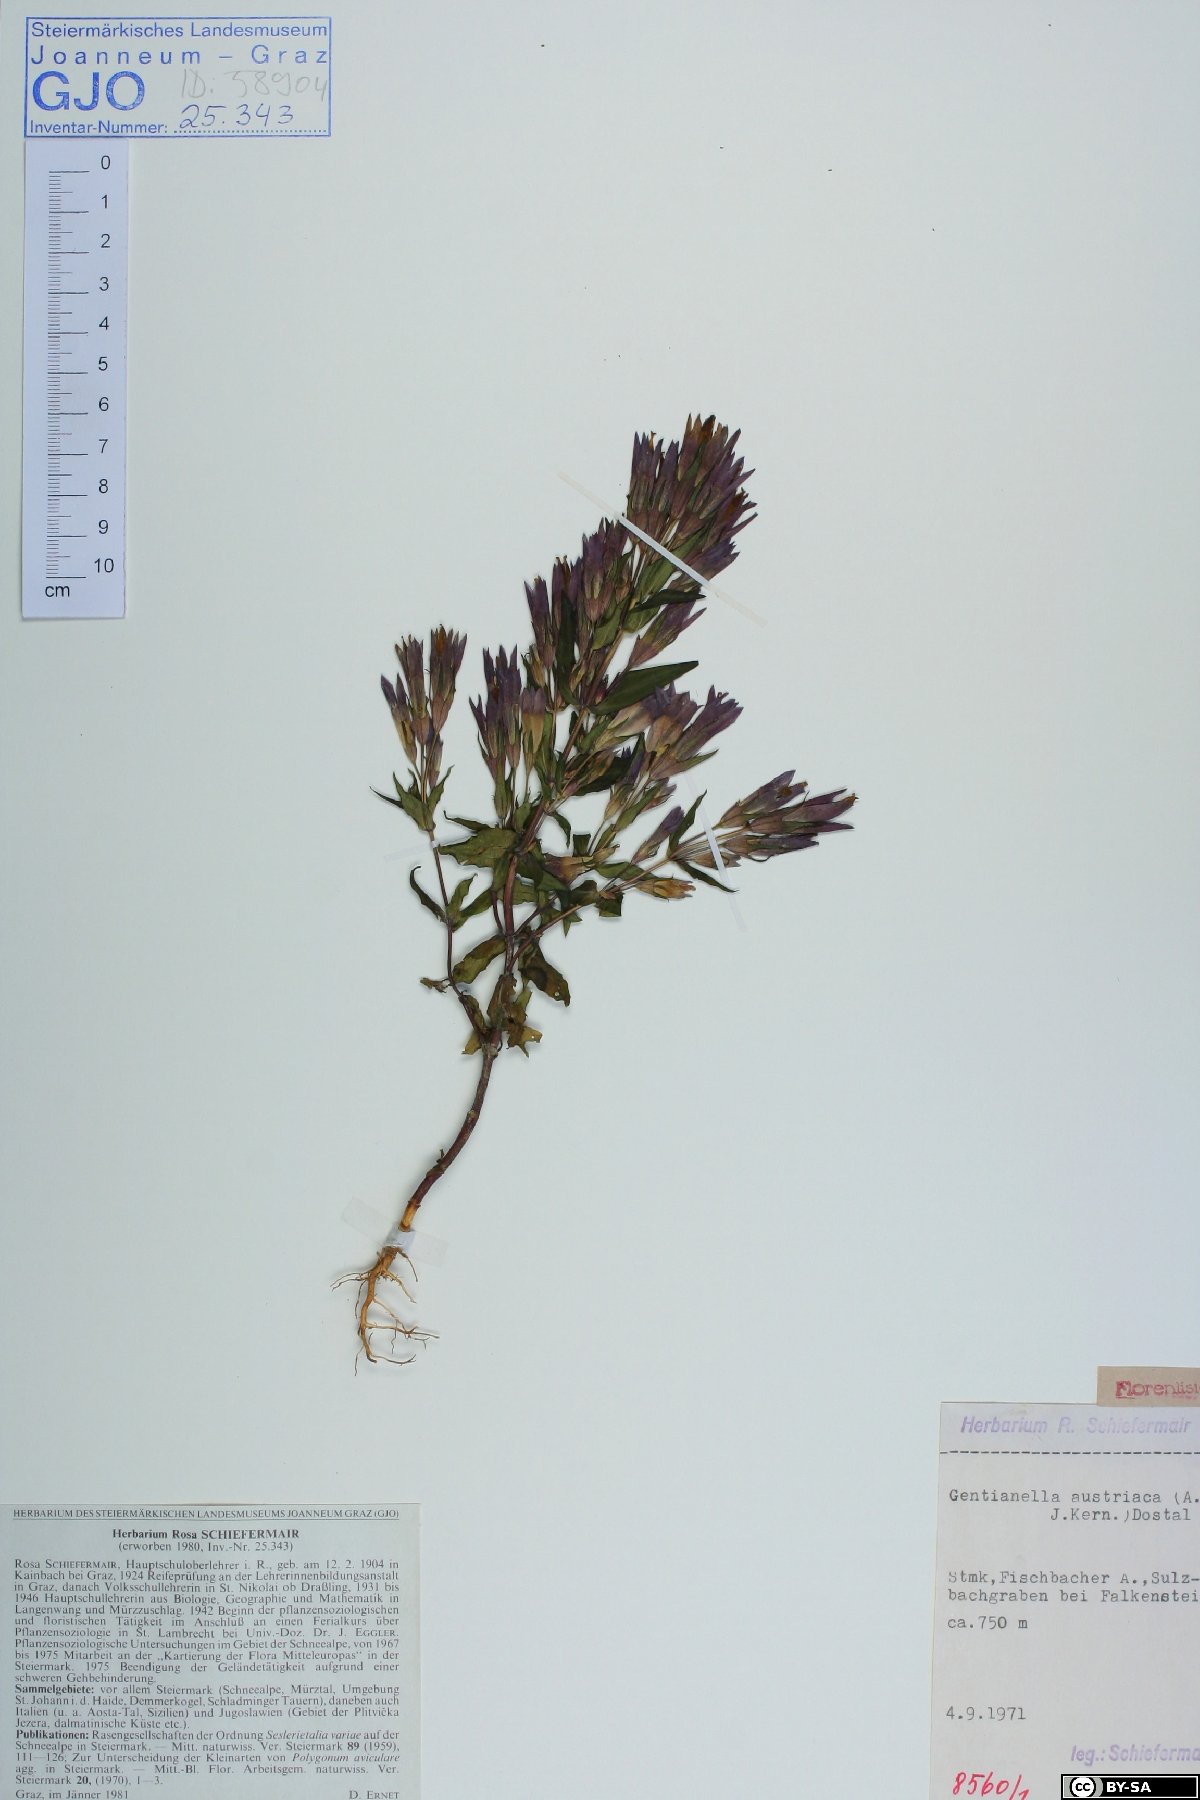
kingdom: Plantae
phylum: Tracheophyta
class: Magnoliopsida
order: Gentianales
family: Gentianaceae
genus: Gentianella
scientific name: Gentianella austriaca
